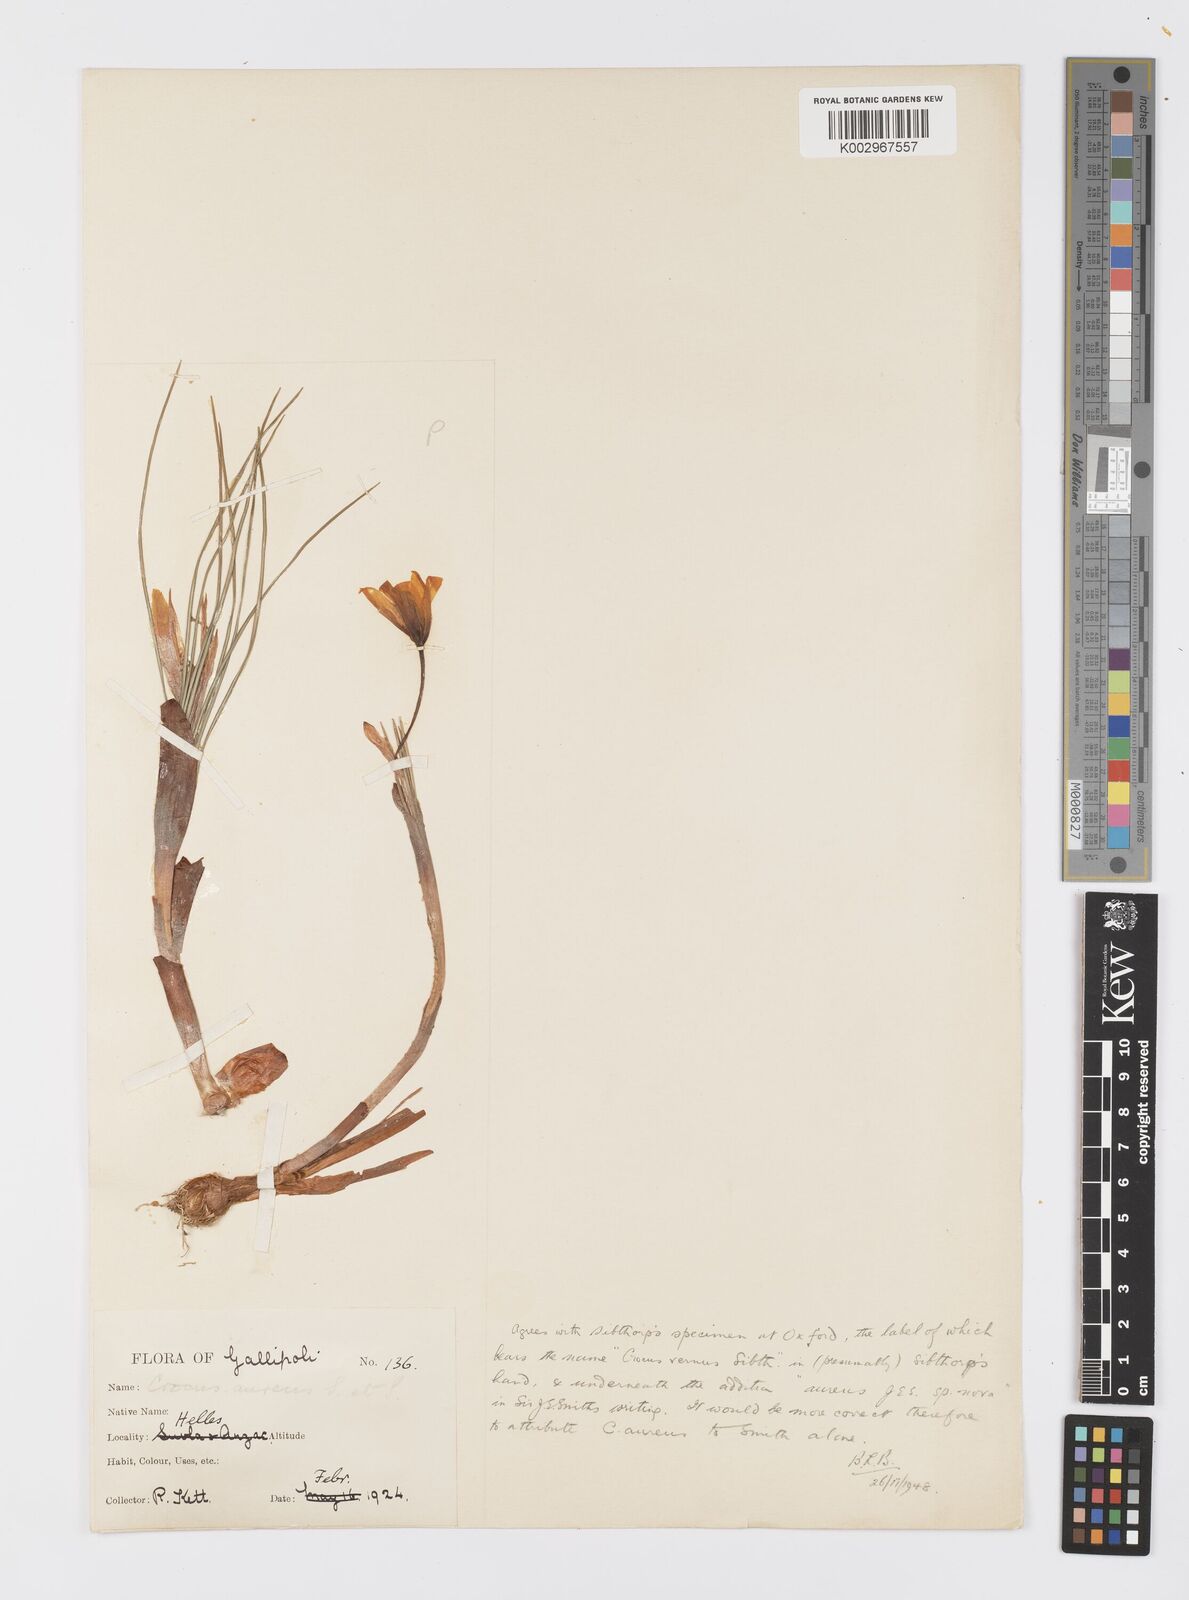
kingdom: Plantae
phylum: Tracheophyta
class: Liliopsida
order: Asparagales
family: Iridaceae
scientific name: Iridaceae
